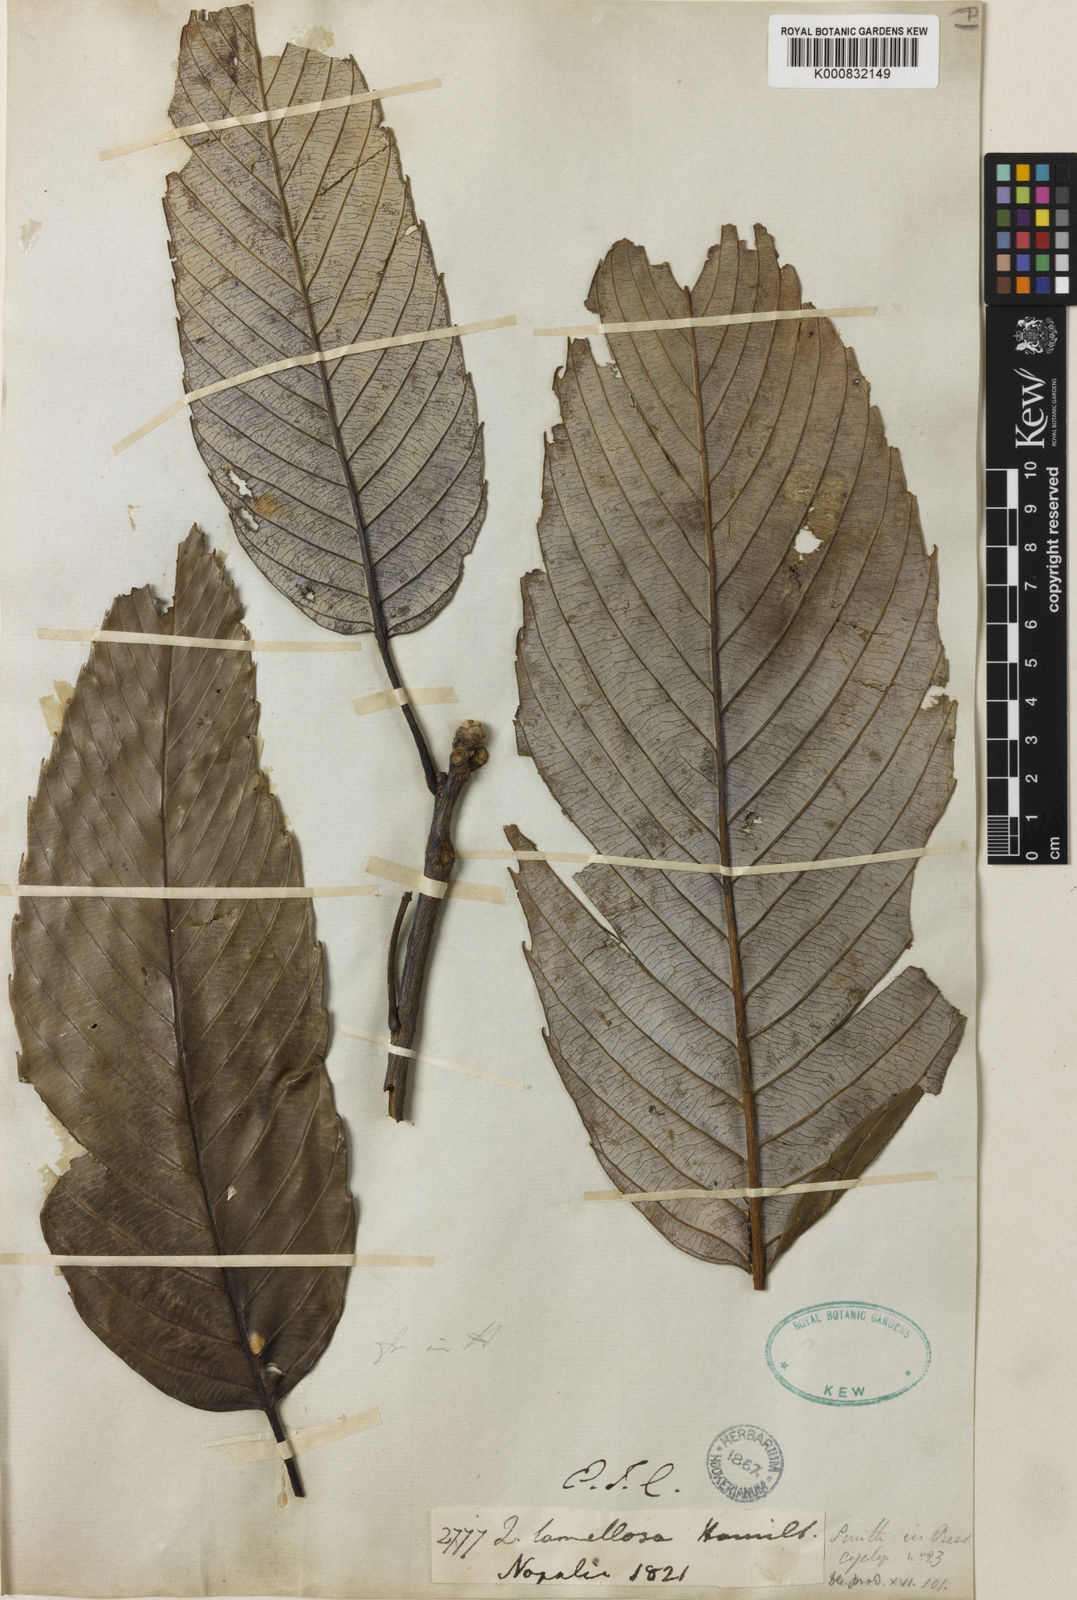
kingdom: Plantae
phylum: Tracheophyta
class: Magnoliopsida
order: Fagales
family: Fagaceae
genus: Quercus
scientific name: Quercus lamellosa
